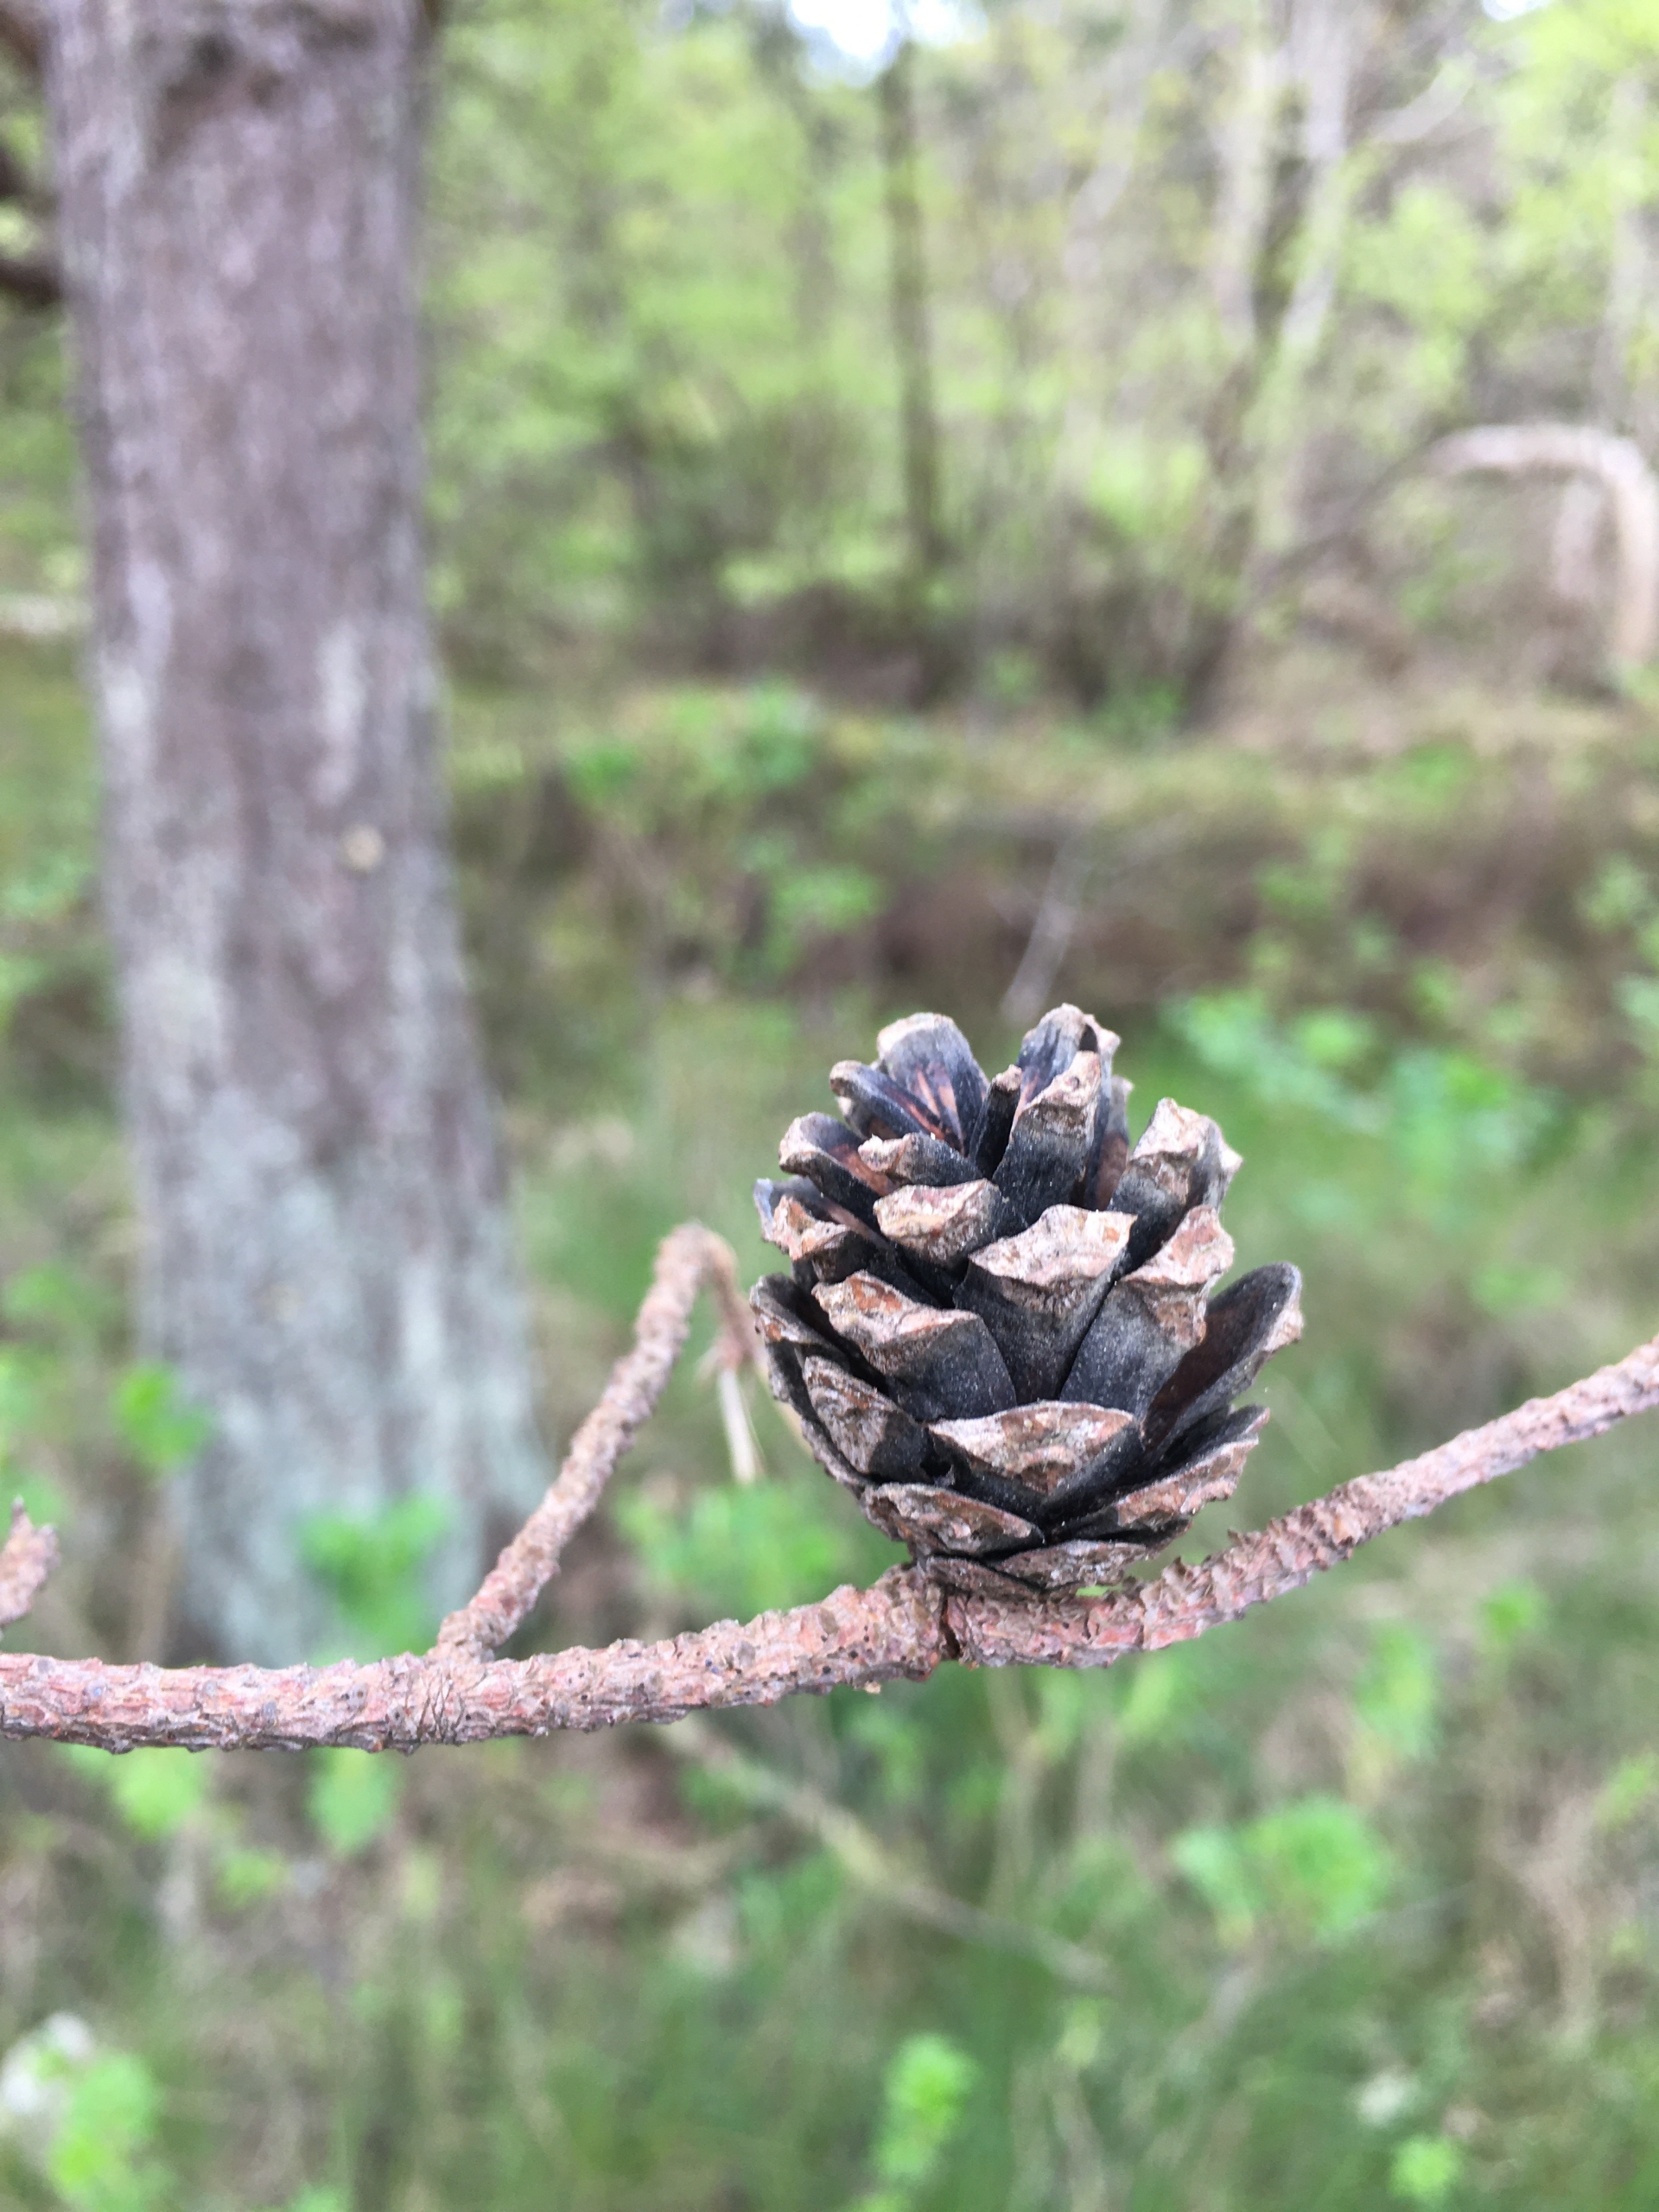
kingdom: Plantae
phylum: Tracheophyta
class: Pinopsida
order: Pinales
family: Pinaceae
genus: Pinus
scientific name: Pinus sylvestris
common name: Skov-fyr
